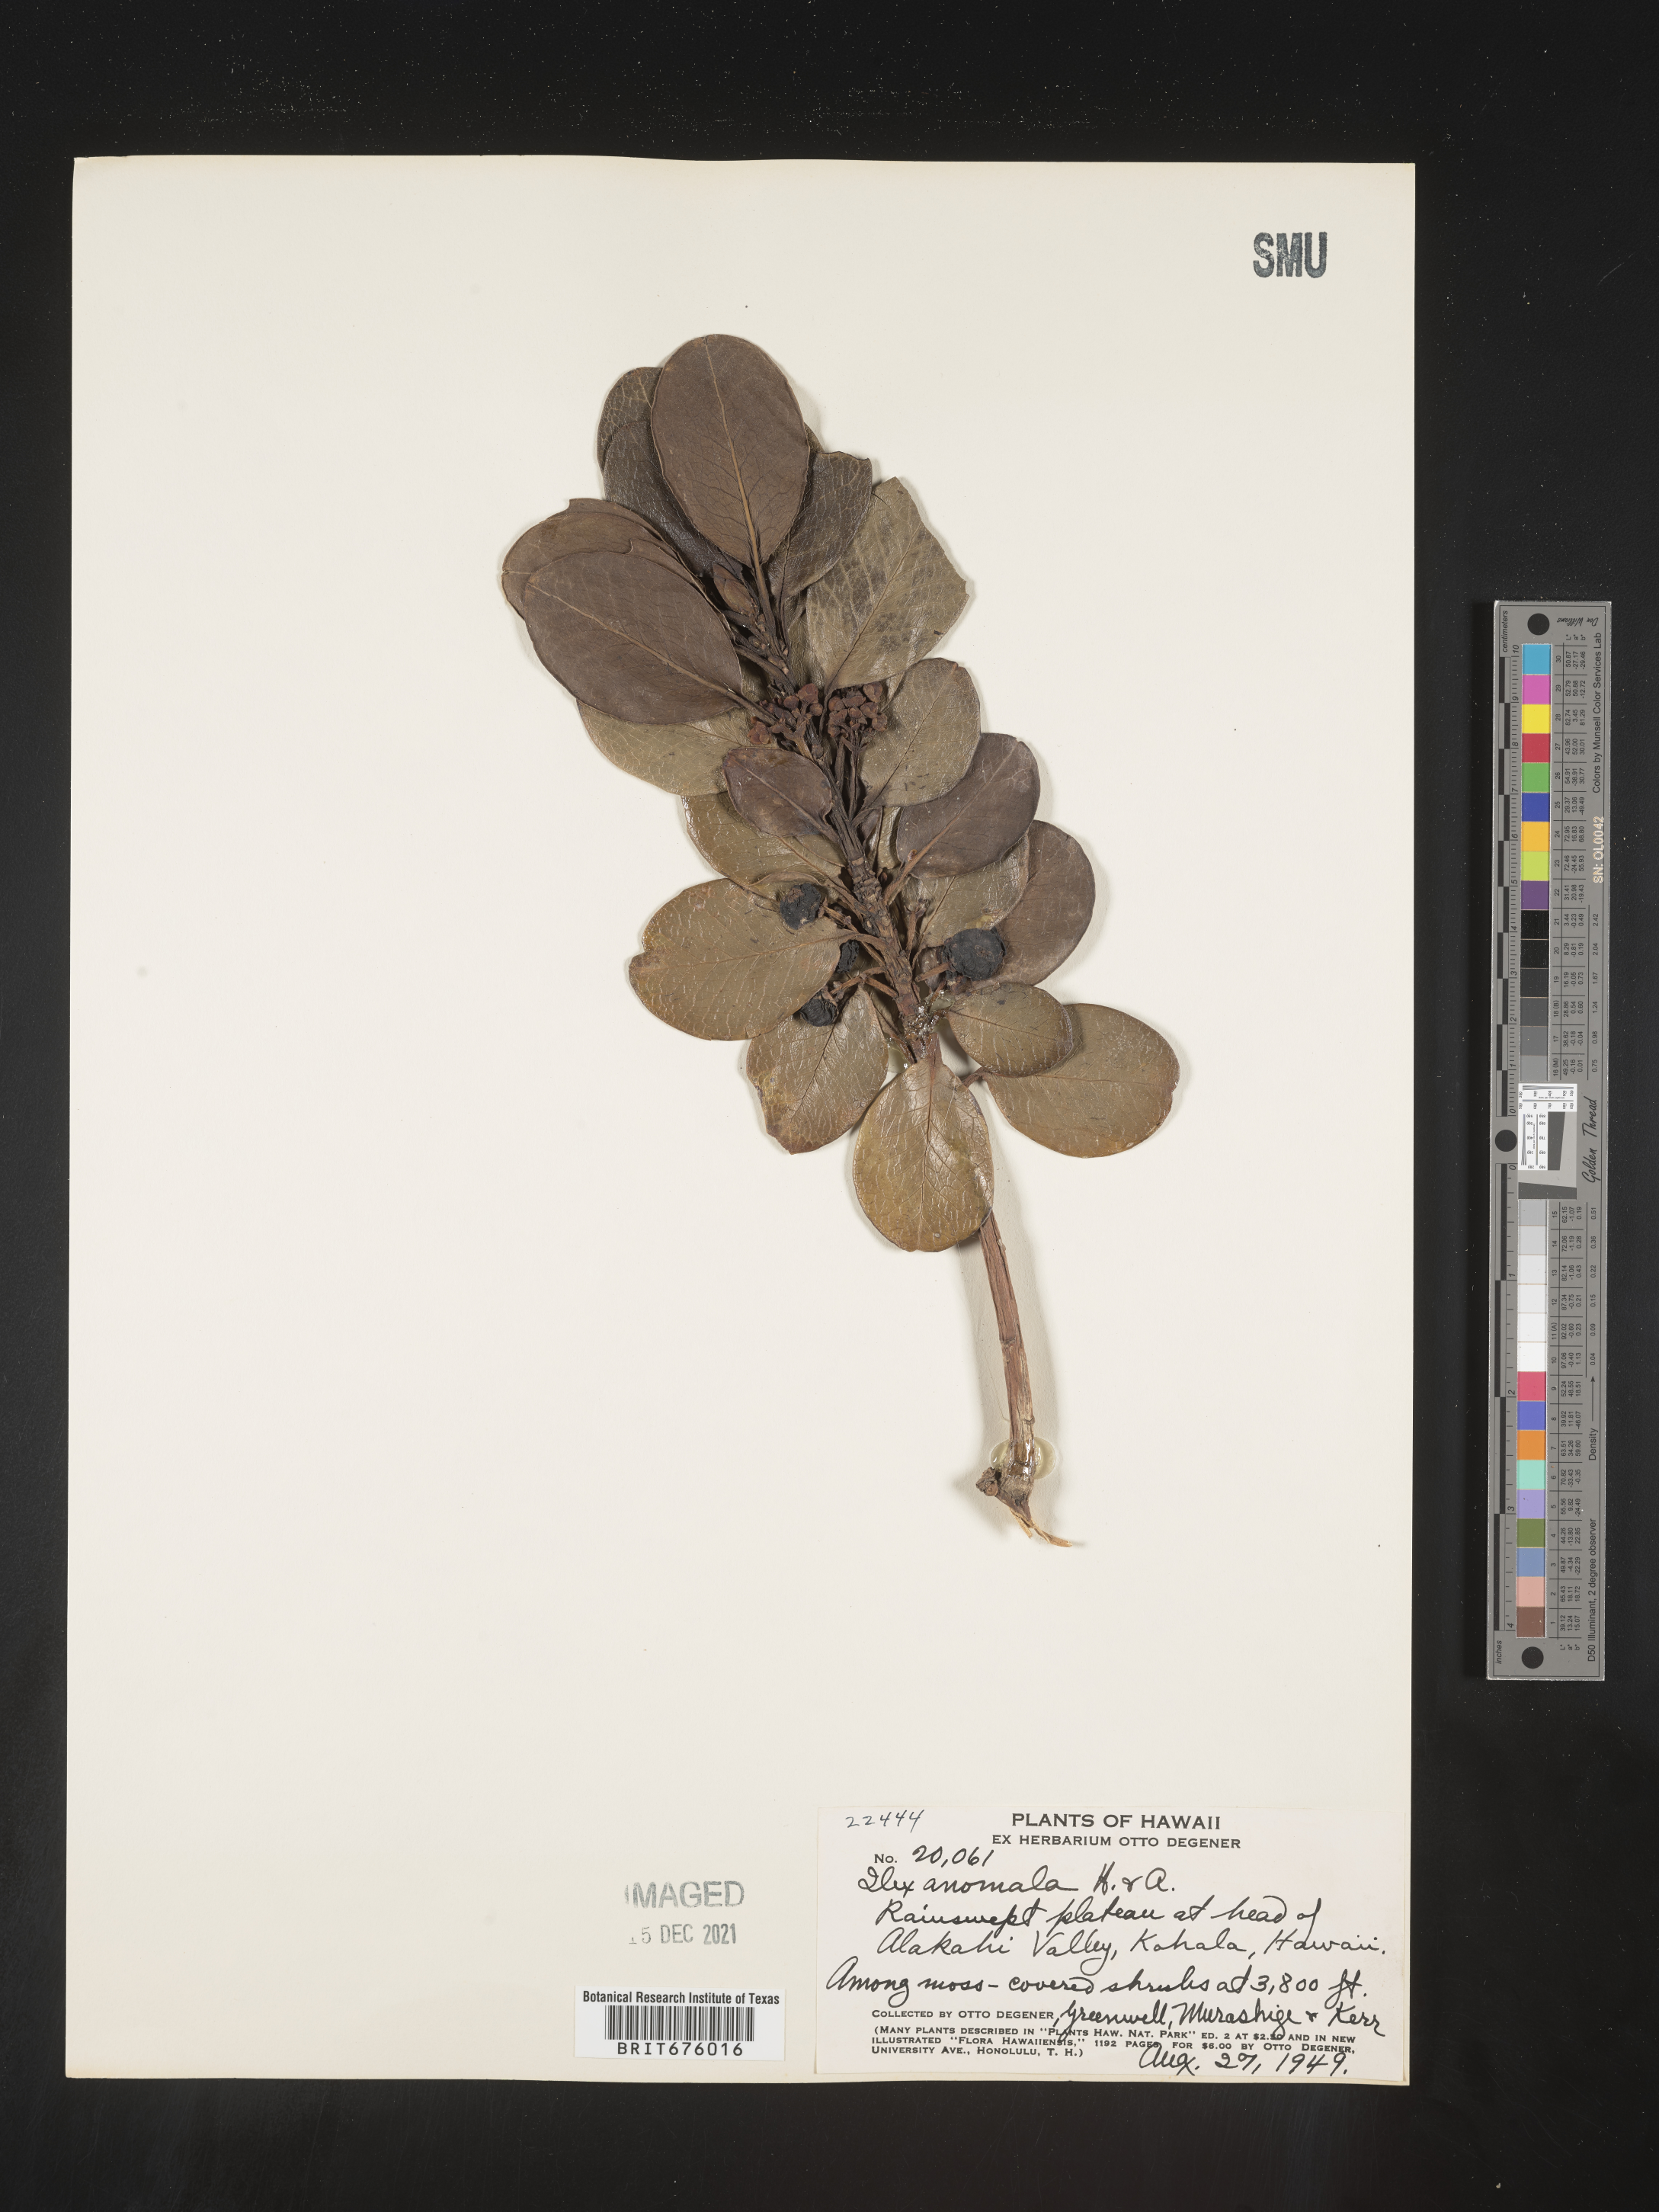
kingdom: Plantae
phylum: Tracheophyta
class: Magnoliopsida
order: Aquifoliales
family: Aquifoliaceae
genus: Ilex
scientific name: Ilex
